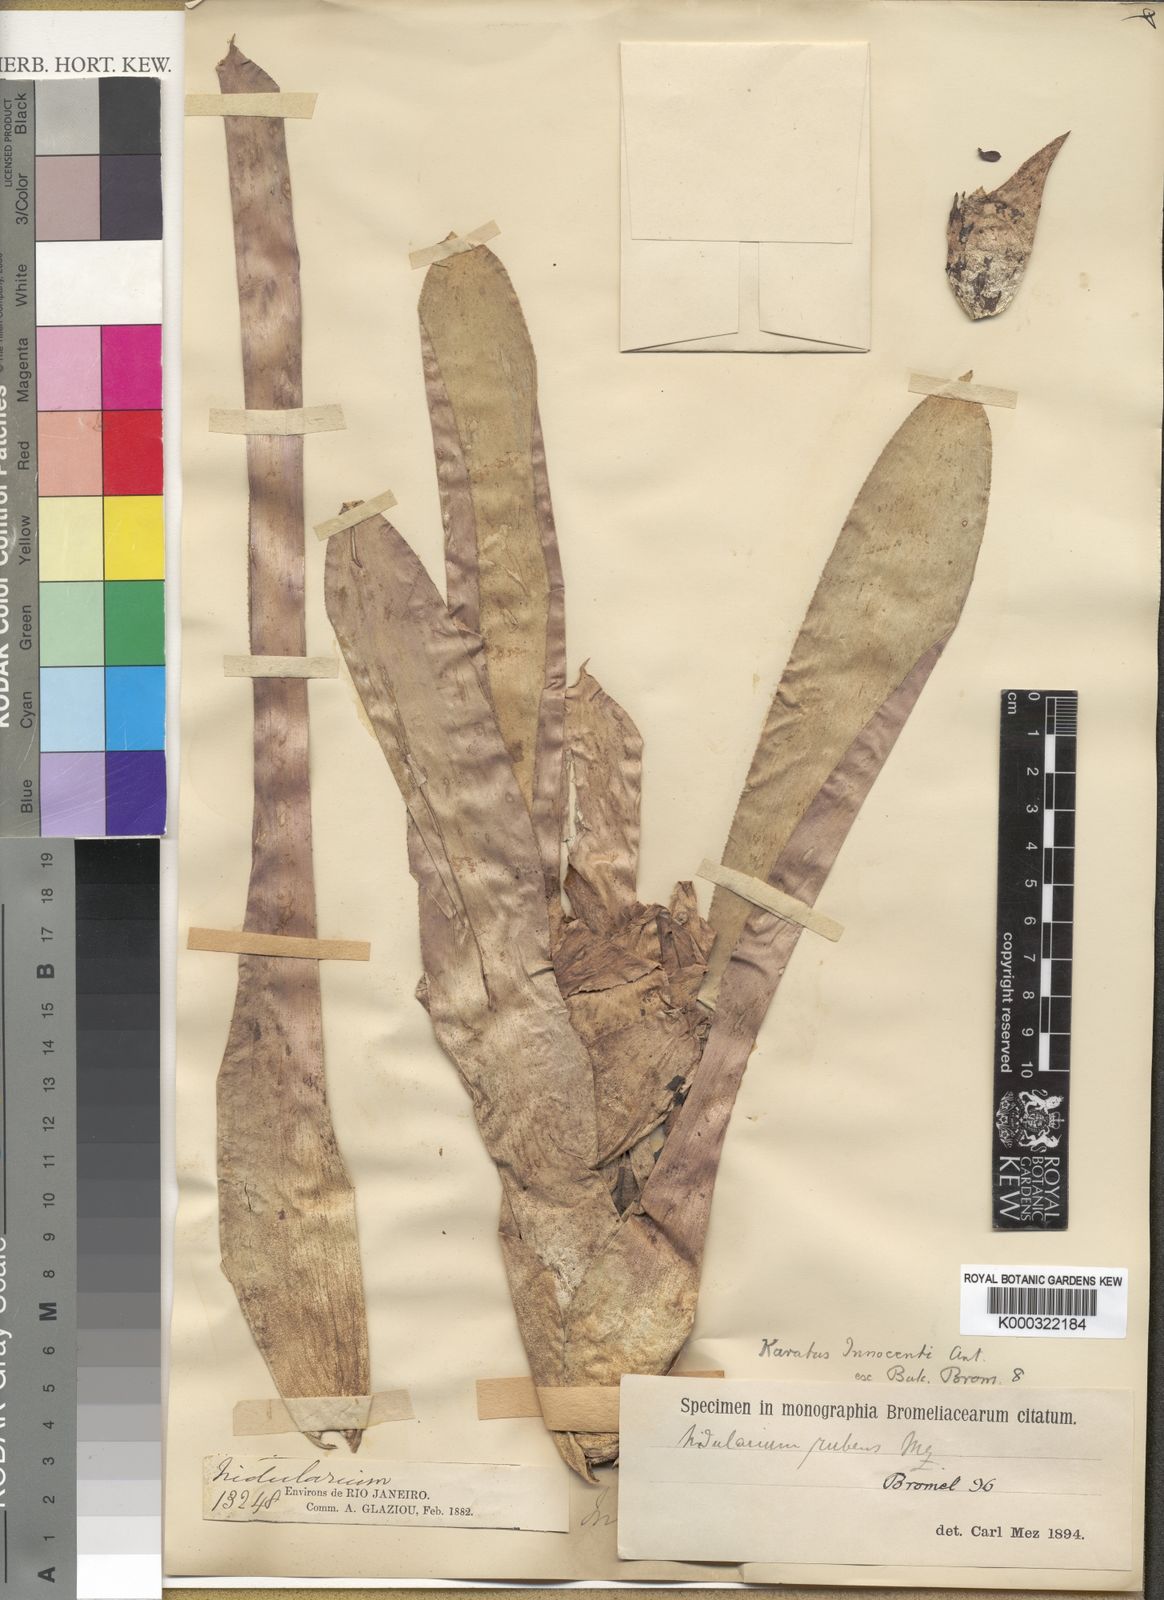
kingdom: Plantae
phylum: Tracheophyta
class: Liliopsida
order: Poales
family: Bromeliaceae
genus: Nidularium
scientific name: Nidularium rubens
